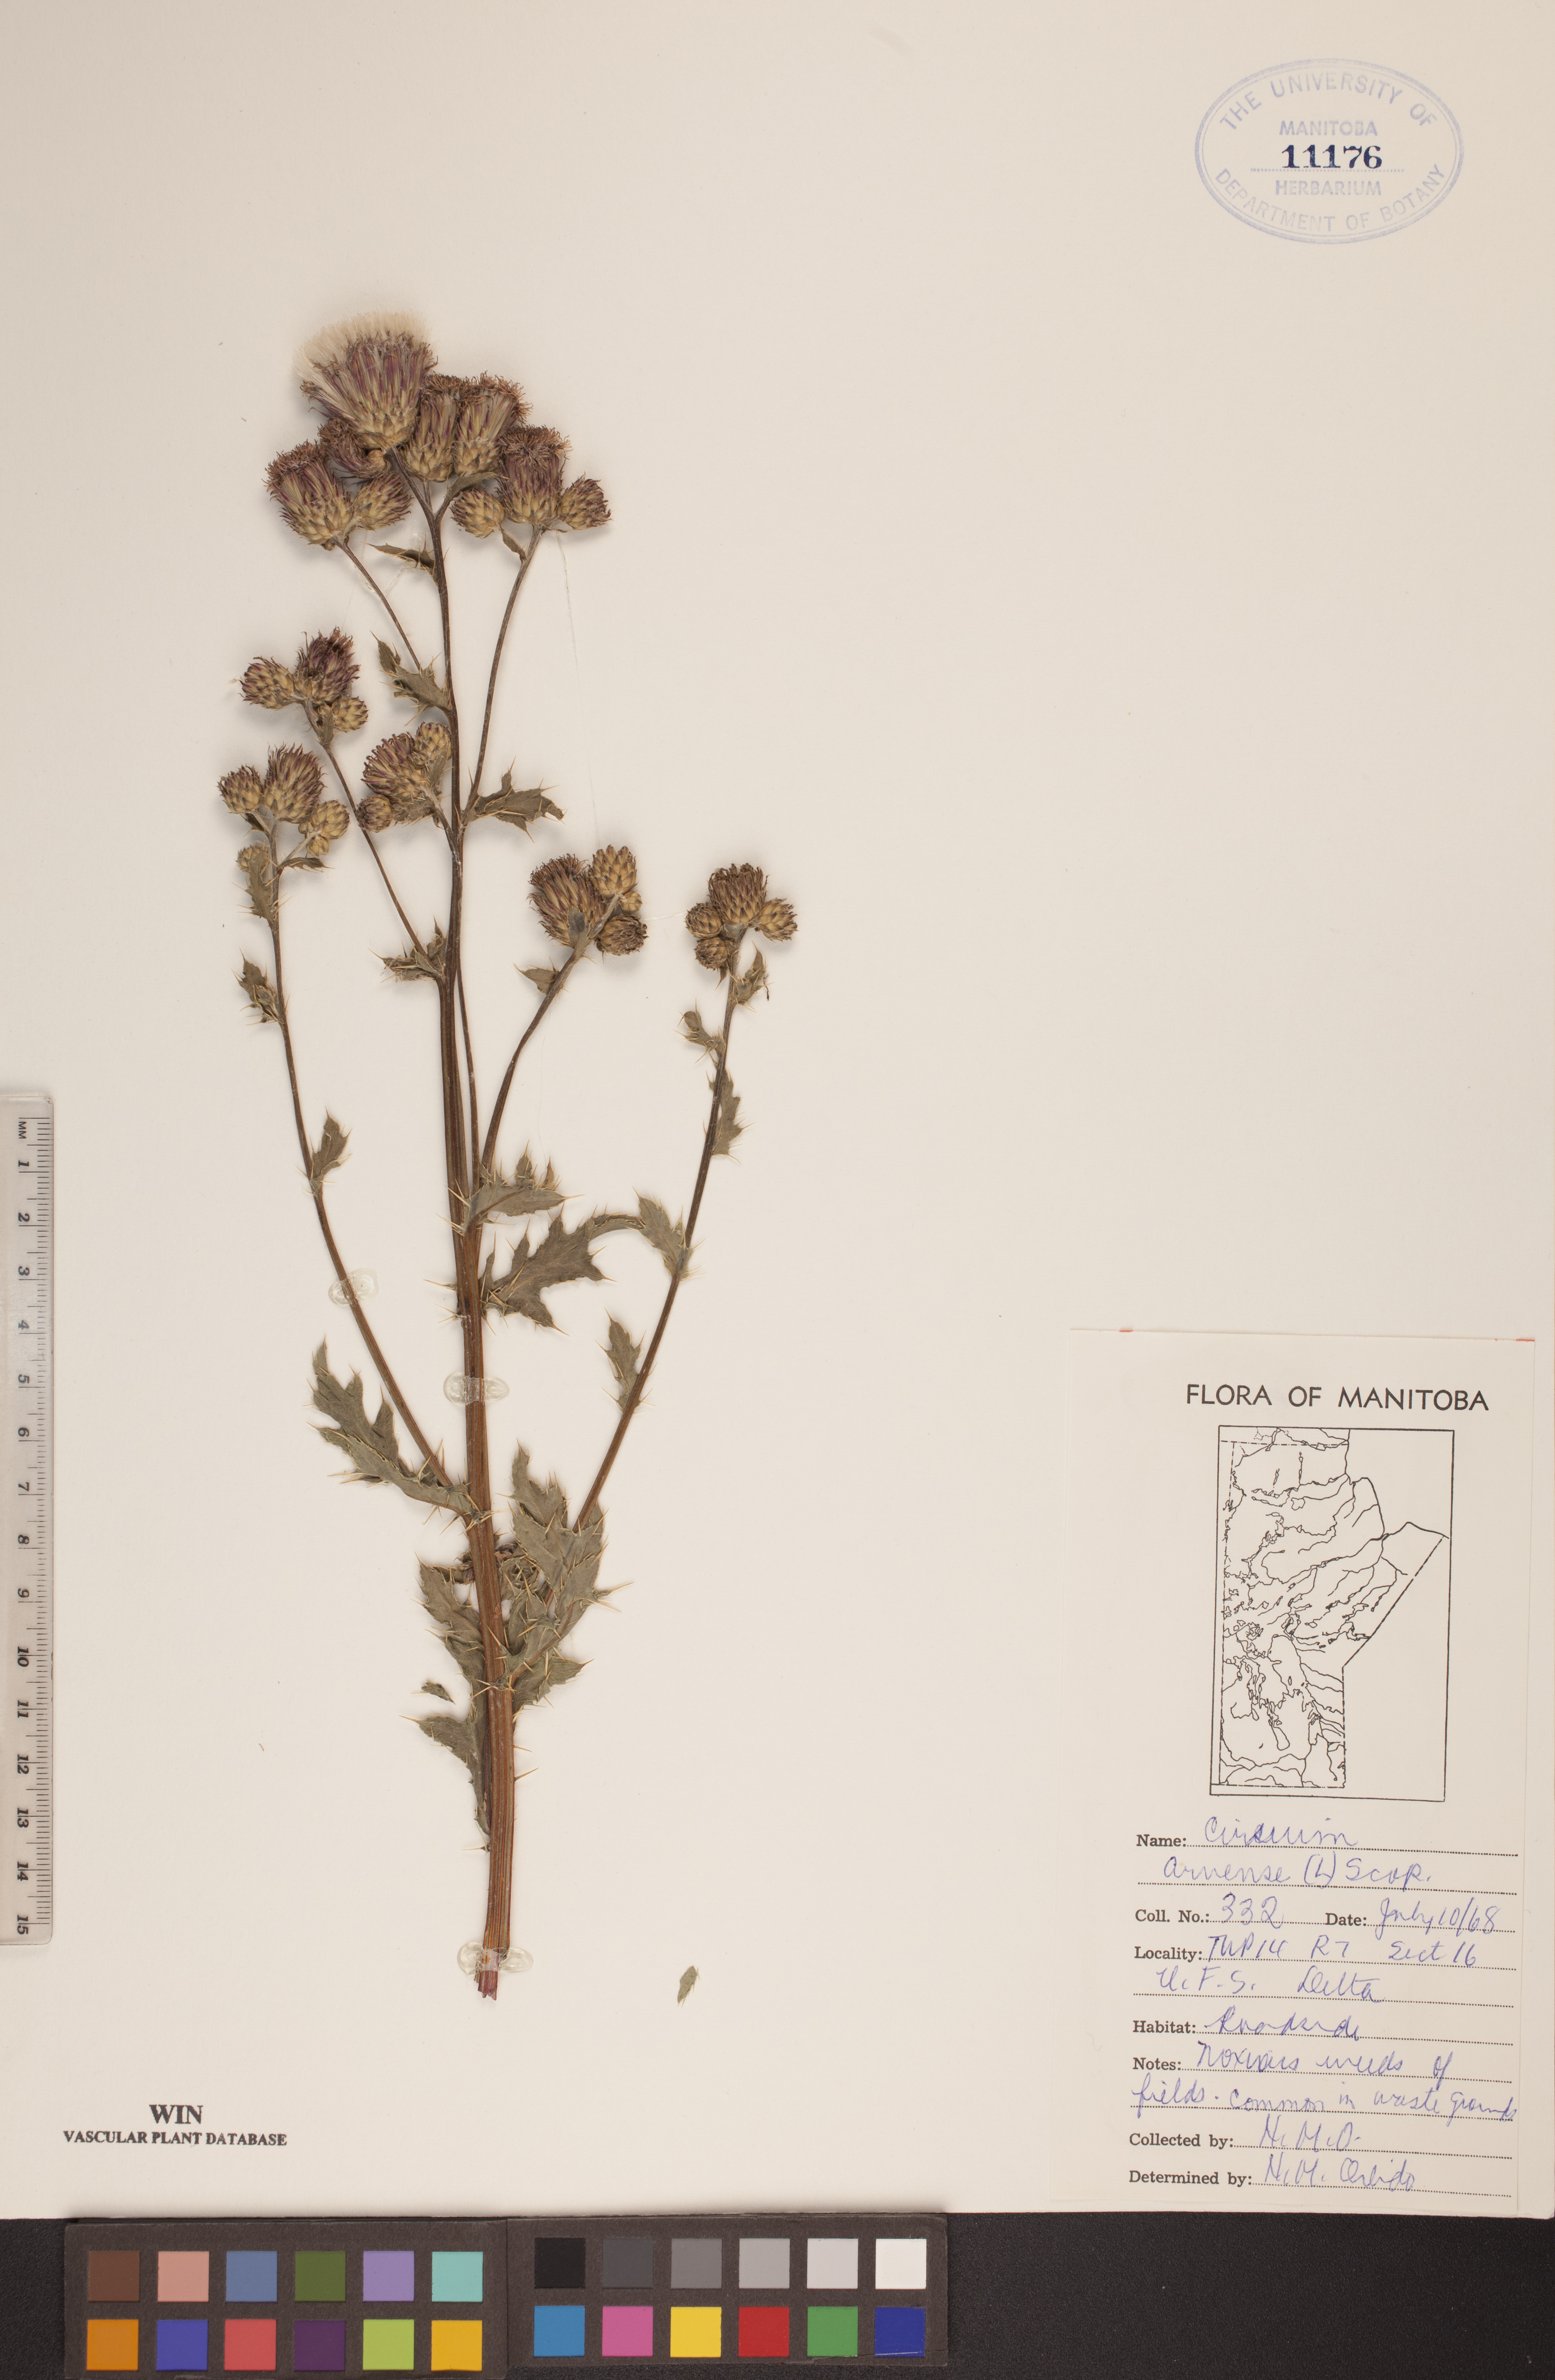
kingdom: Plantae
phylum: Tracheophyta
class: Magnoliopsida
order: Asterales
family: Asteraceae
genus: Cirsium
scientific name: Cirsium arvense
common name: Creeping thistle
